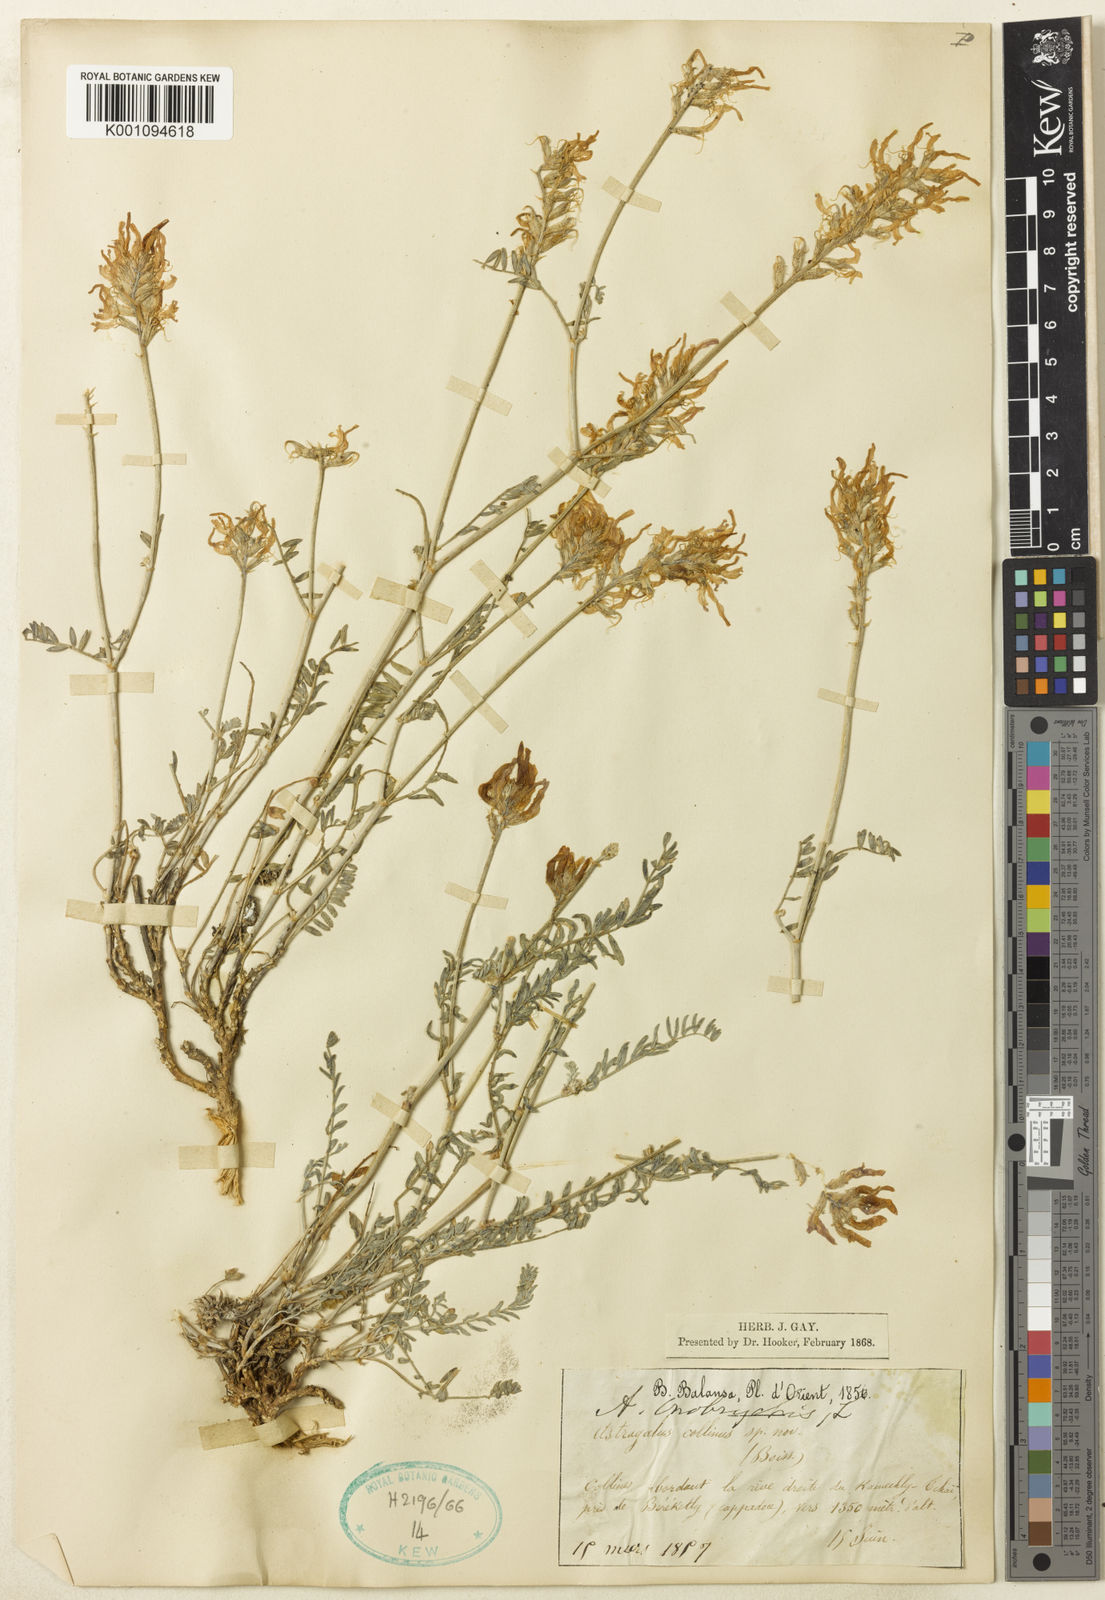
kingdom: Plantae
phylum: Tracheophyta
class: Magnoliopsida
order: Fabales
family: Fabaceae
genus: Astragalus
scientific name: Astragalus
